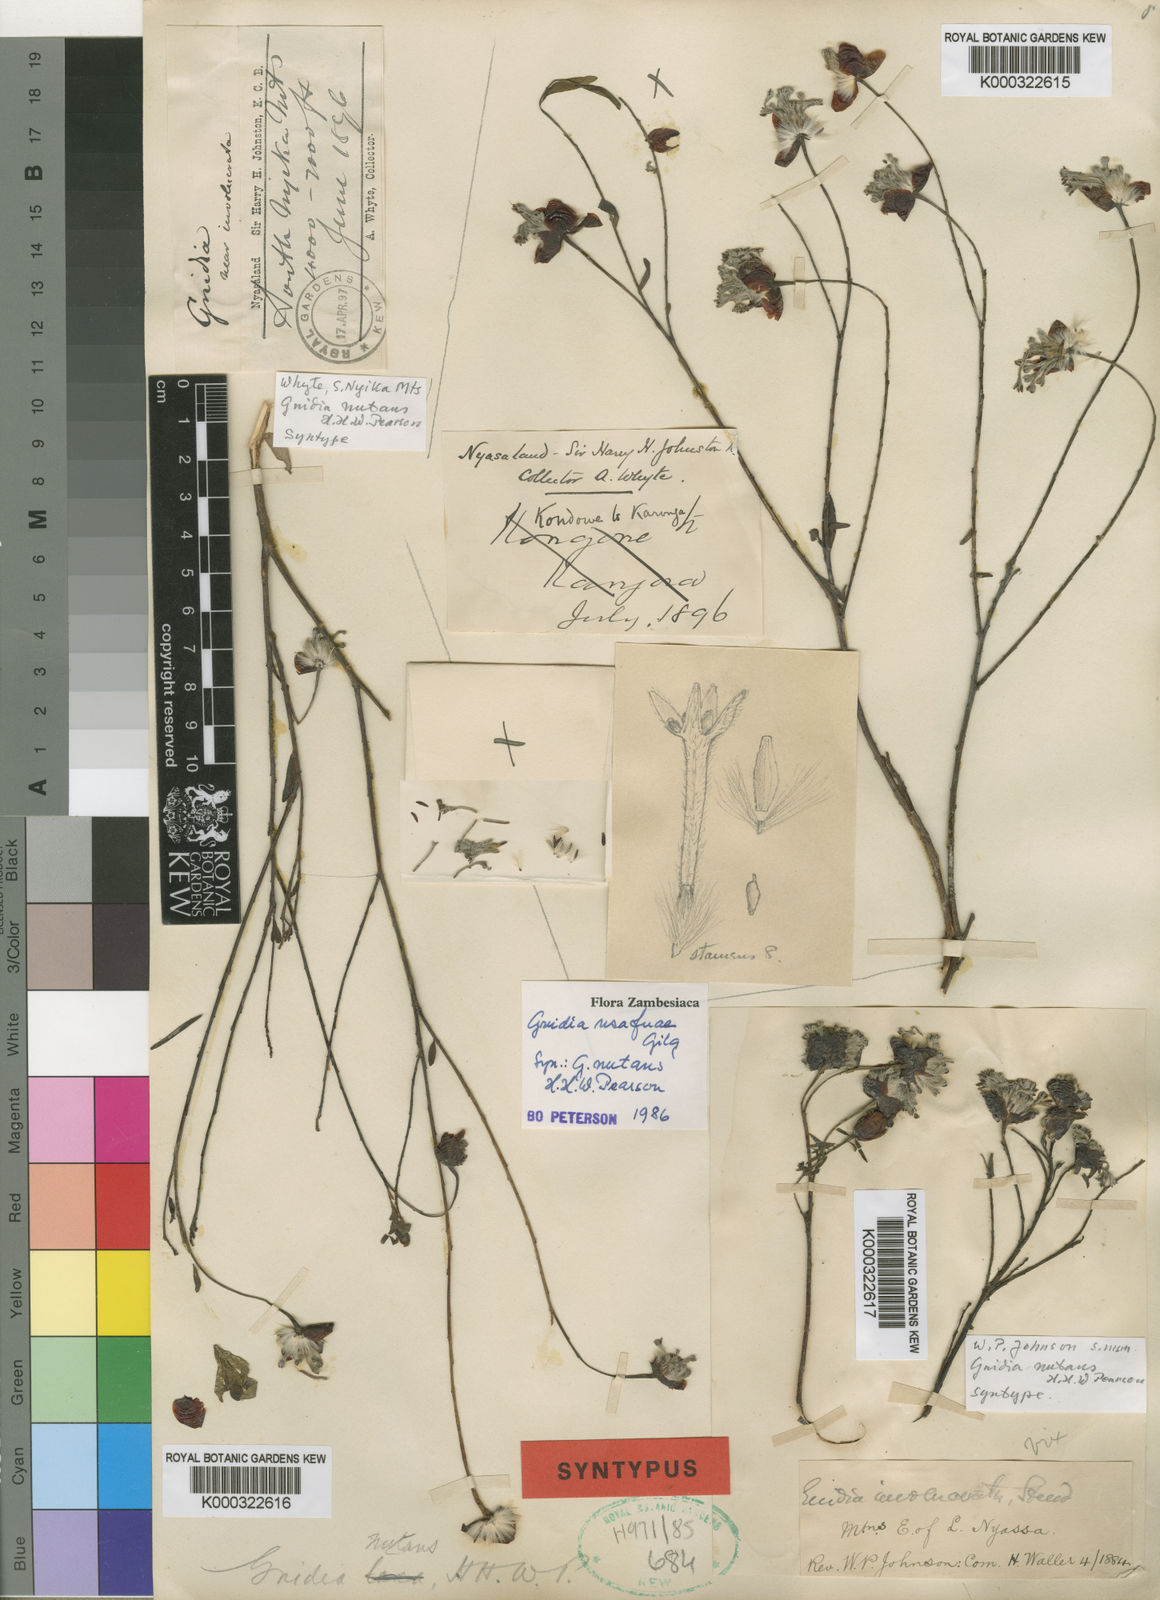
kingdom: Plantae
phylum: Tracheophyta
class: Magnoliopsida
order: Malvales
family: Thymelaeaceae
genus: Gnidia
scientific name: Gnidia usafuae
